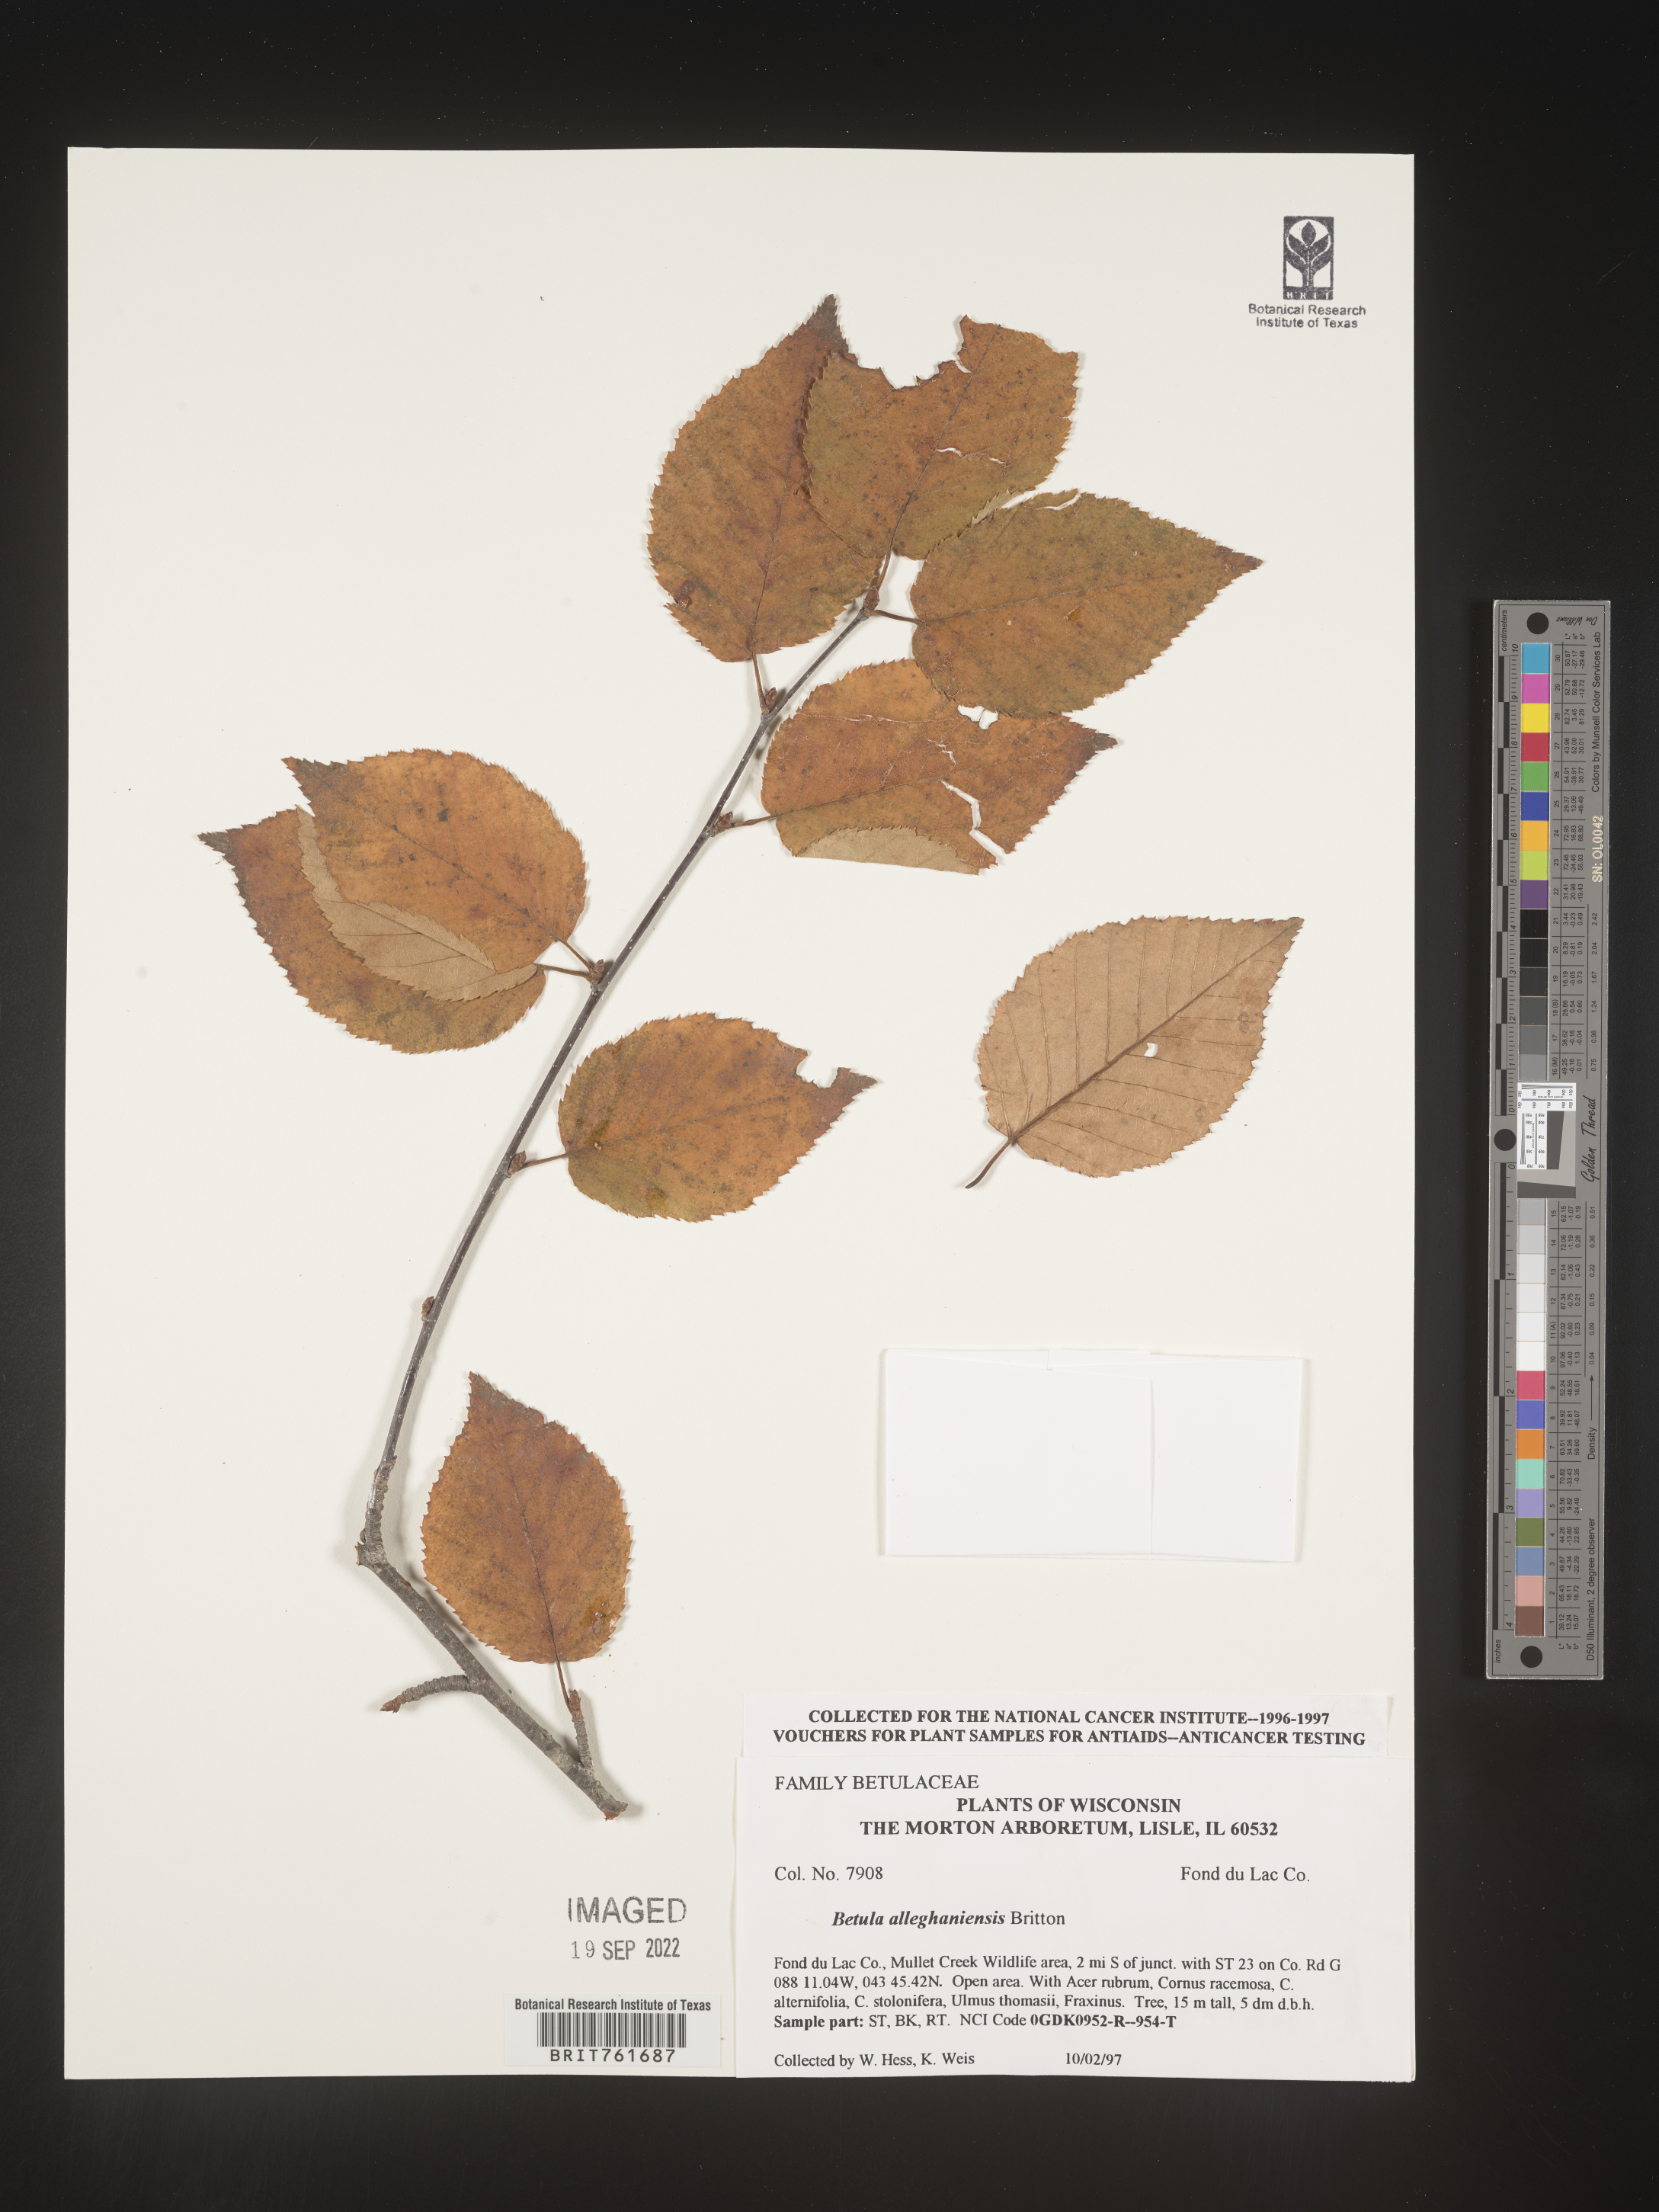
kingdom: Plantae
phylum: Tracheophyta
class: Magnoliopsida
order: Fagales
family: Betulaceae
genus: Betula
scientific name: Betula alleghaniensis
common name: Yellow birch
